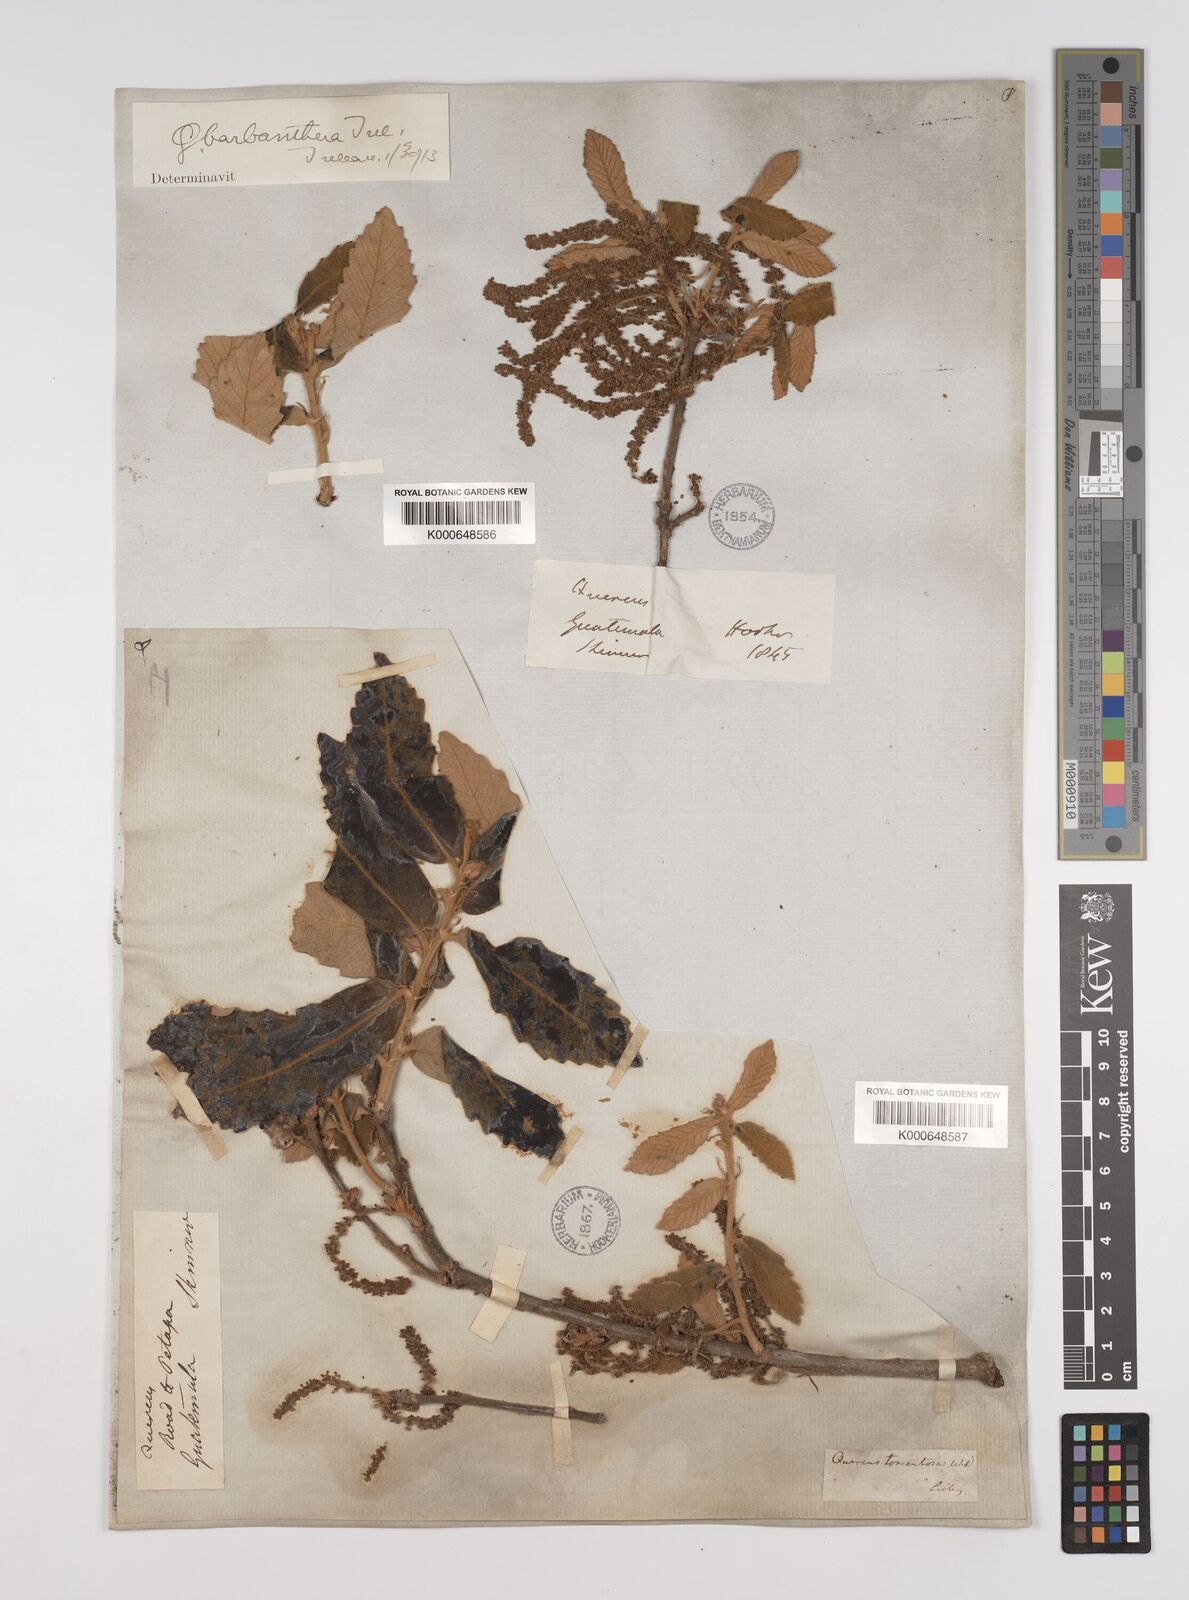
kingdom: Plantae
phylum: Tracheophyta
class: Magnoliopsida
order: Fagales
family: Fagaceae
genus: Quercus
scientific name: Quercus peduncularis
